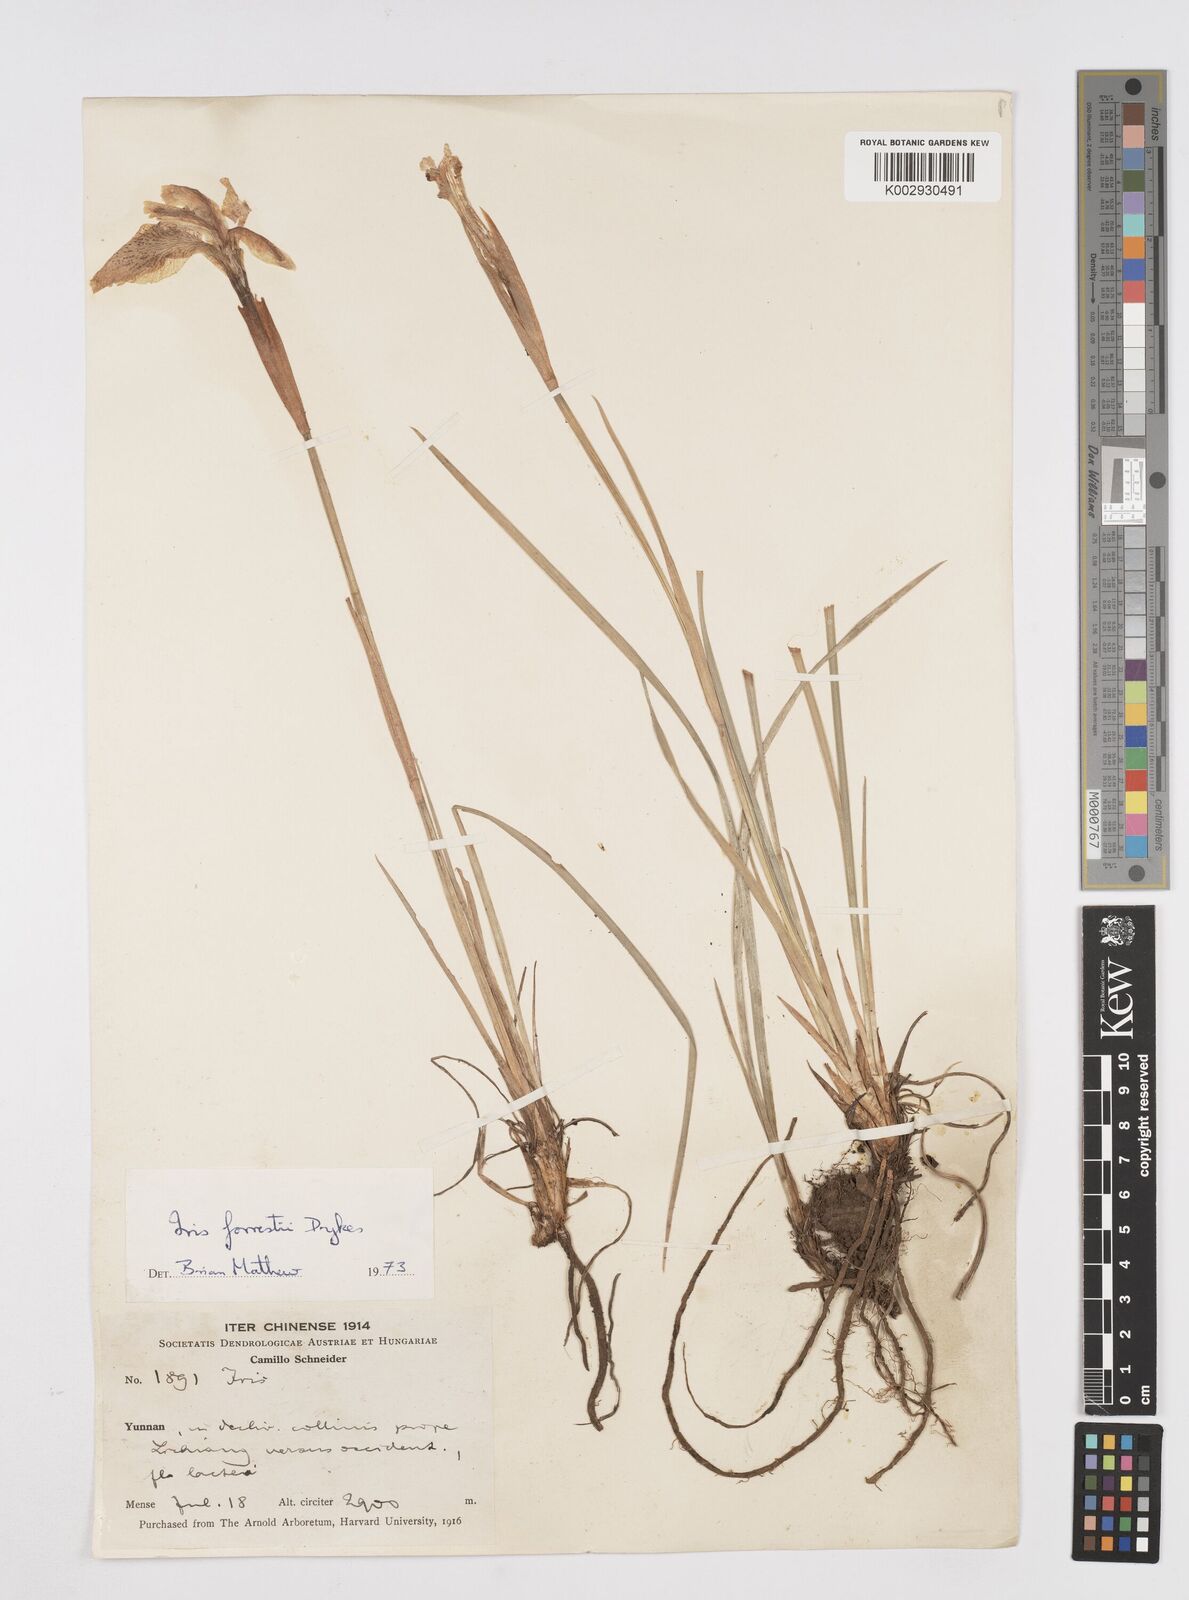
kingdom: Plantae
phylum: Tracheophyta
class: Liliopsida
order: Asparagales
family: Iridaceae
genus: Iris
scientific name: Iris forrestii
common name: Yunnan iris
